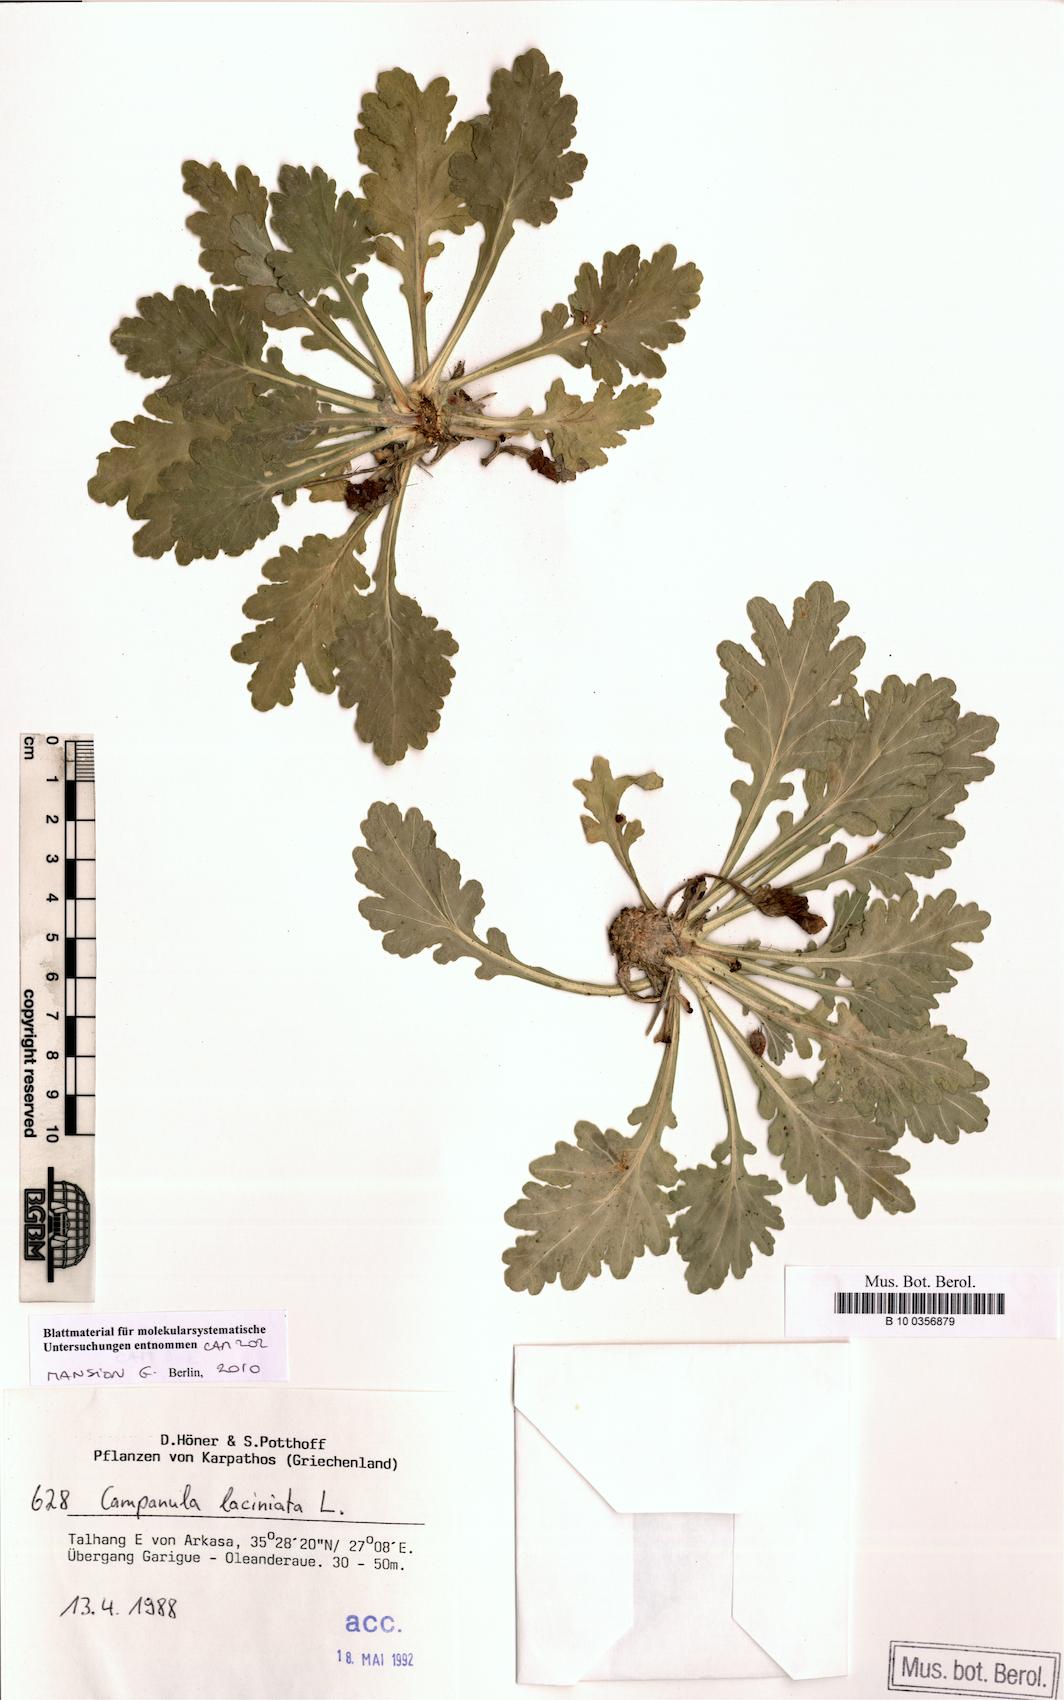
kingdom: Plantae
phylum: Tracheophyta
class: Magnoliopsida
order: Asterales
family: Campanulaceae
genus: Campanula
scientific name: Campanula laciniata
